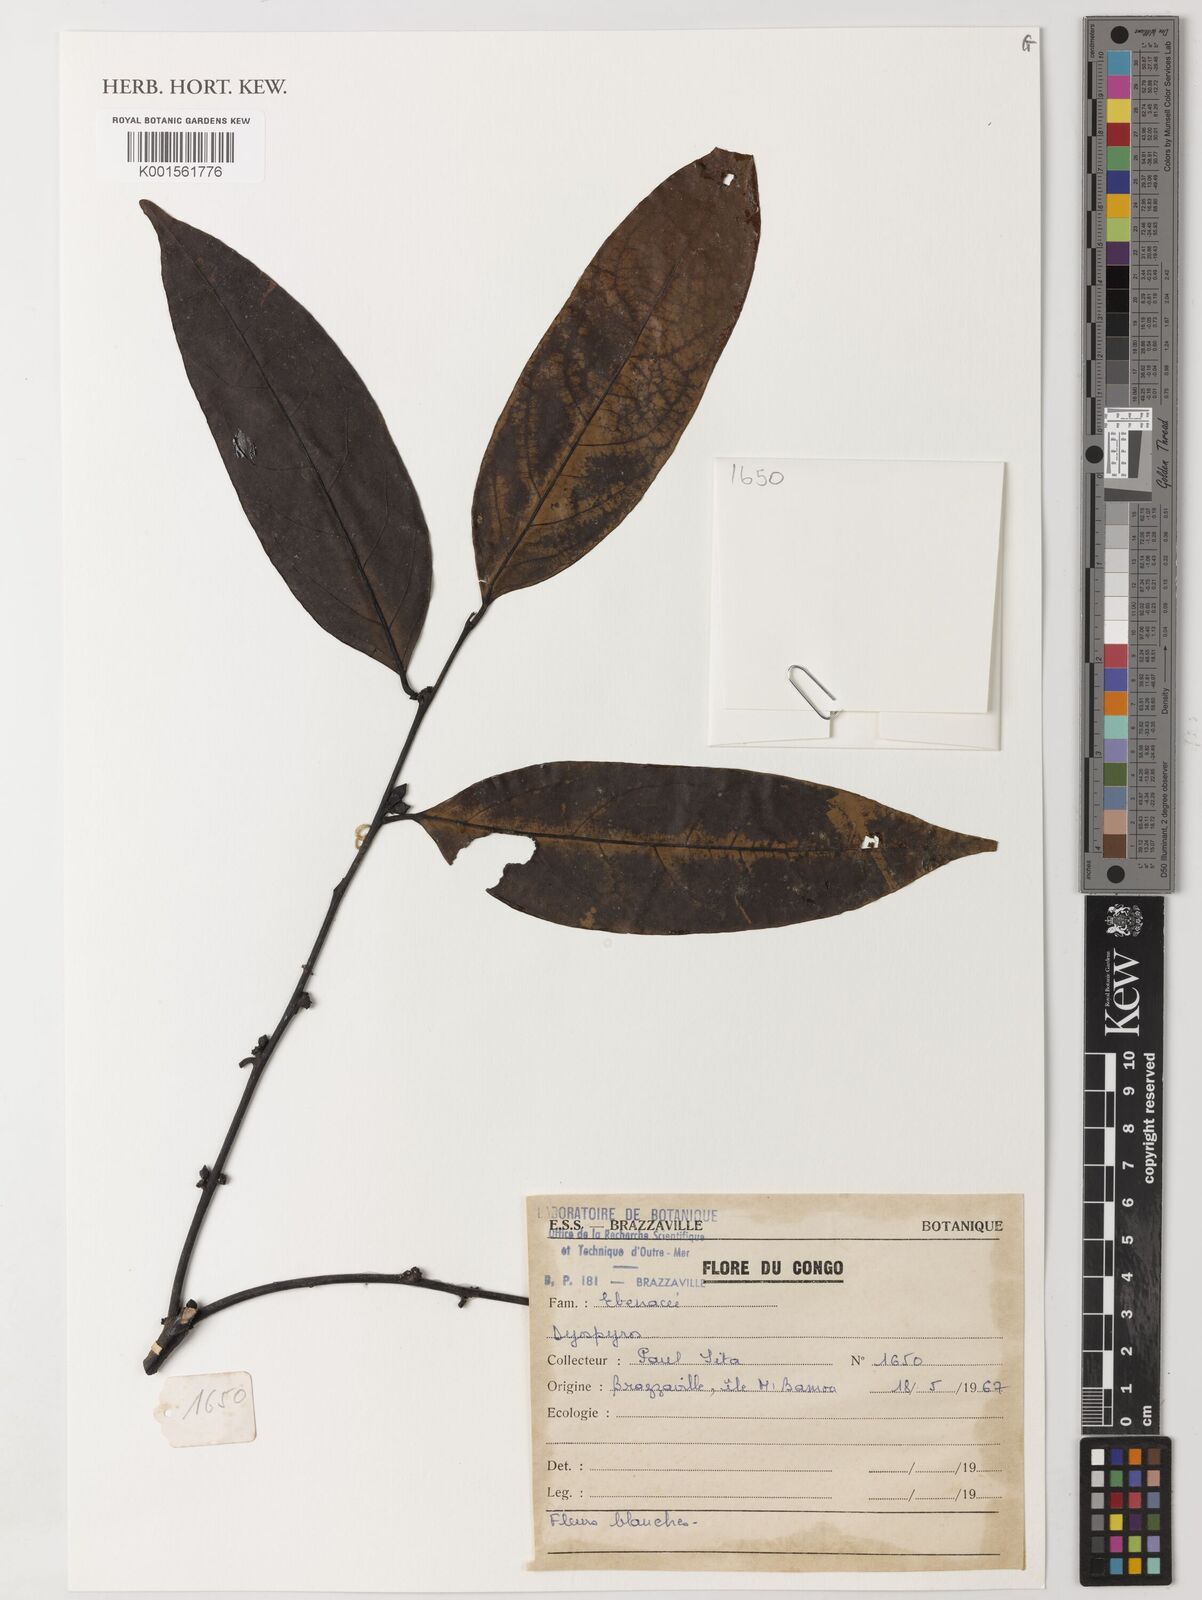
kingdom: Plantae
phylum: Tracheophyta
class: Magnoliopsida
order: Ericales
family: Ebenaceae
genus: Diospyros
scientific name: Diospyros
